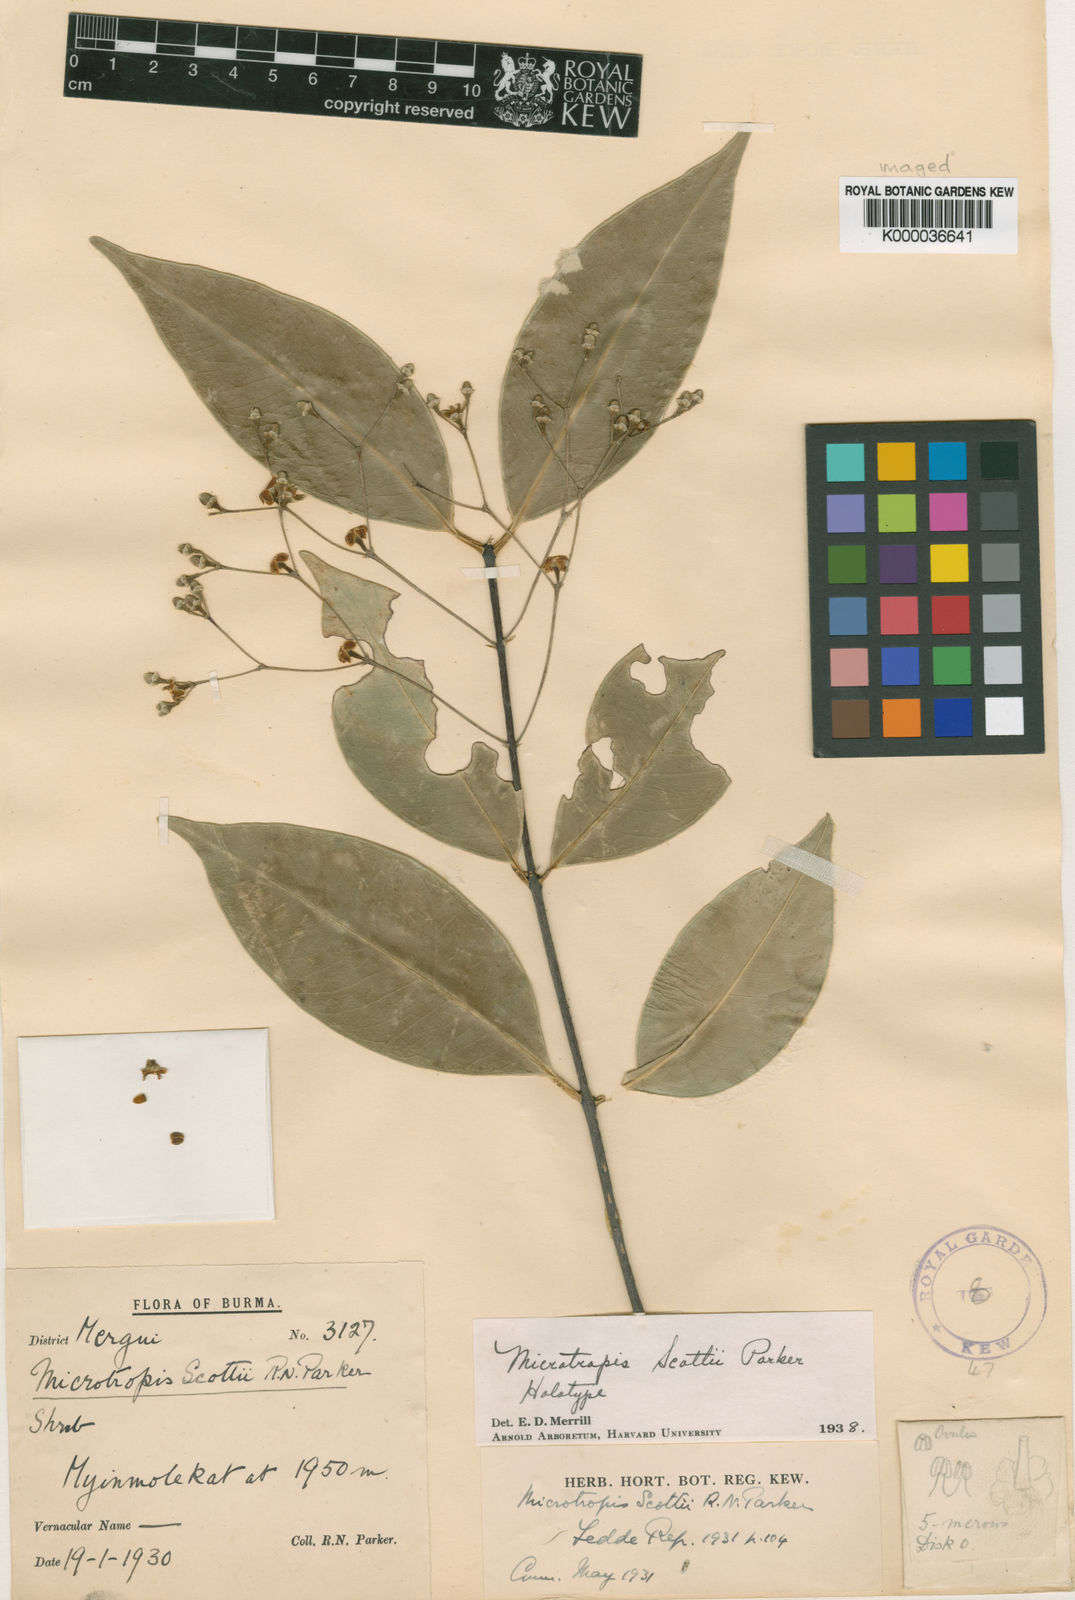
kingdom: Plantae
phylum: Tracheophyta
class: Magnoliopsida
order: Celastrales
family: Celastraceae
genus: Microtropis
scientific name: Microtropis scottii
